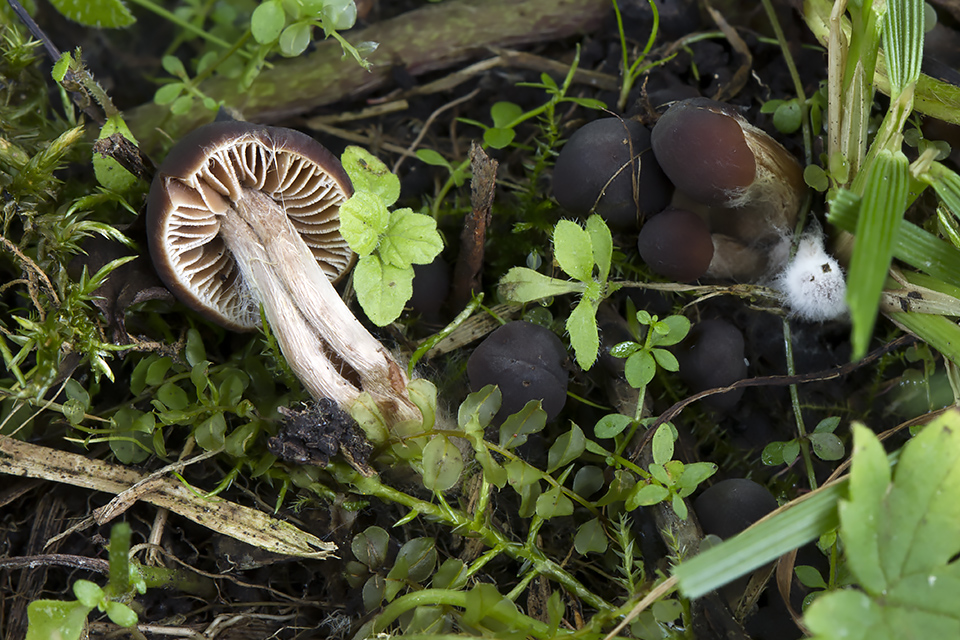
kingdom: Fungi
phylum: Basidiomycota
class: Agaricomycetes
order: Agaricales
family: Hymenogastraceae
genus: Naucoria
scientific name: Naucoria salicis
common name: pile-knaphat
